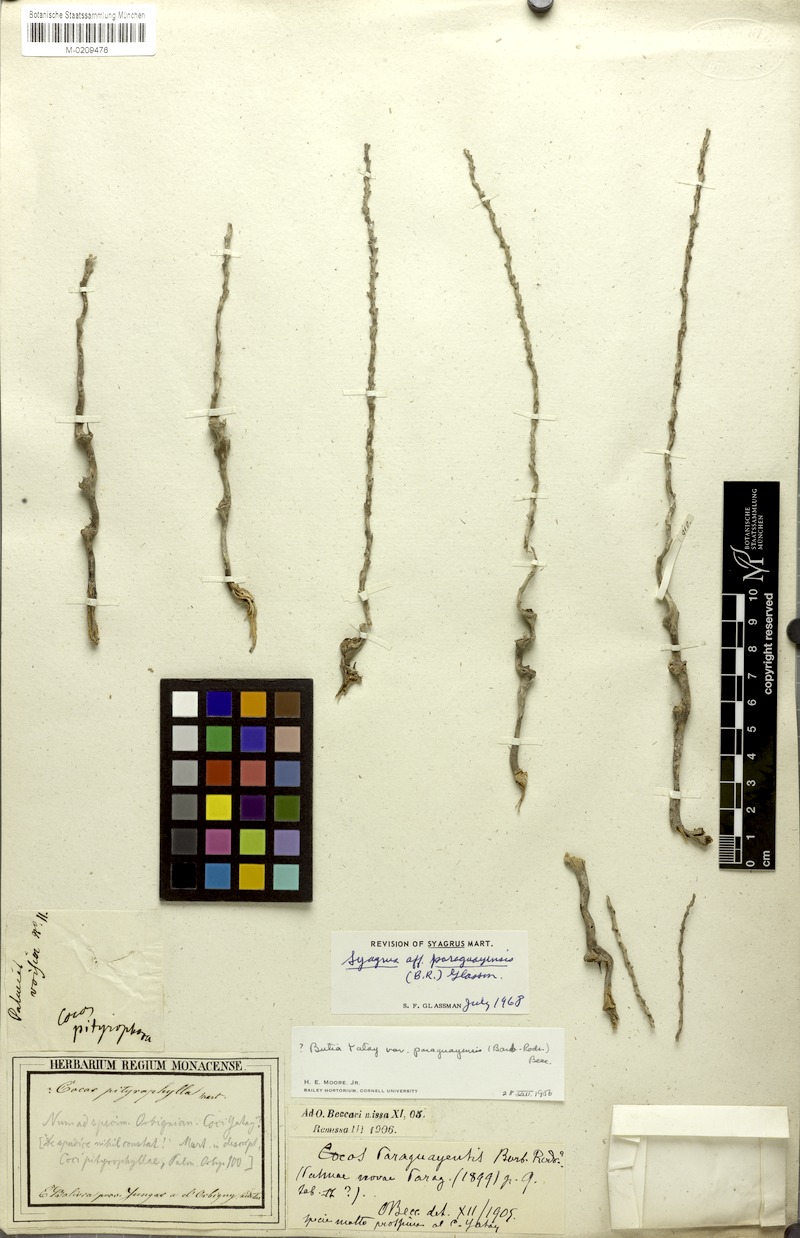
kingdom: Plantae
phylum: Tracheophyta
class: Liliopsida
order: Arecales
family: Arecaceae
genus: Syagrus
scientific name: Syagrus
